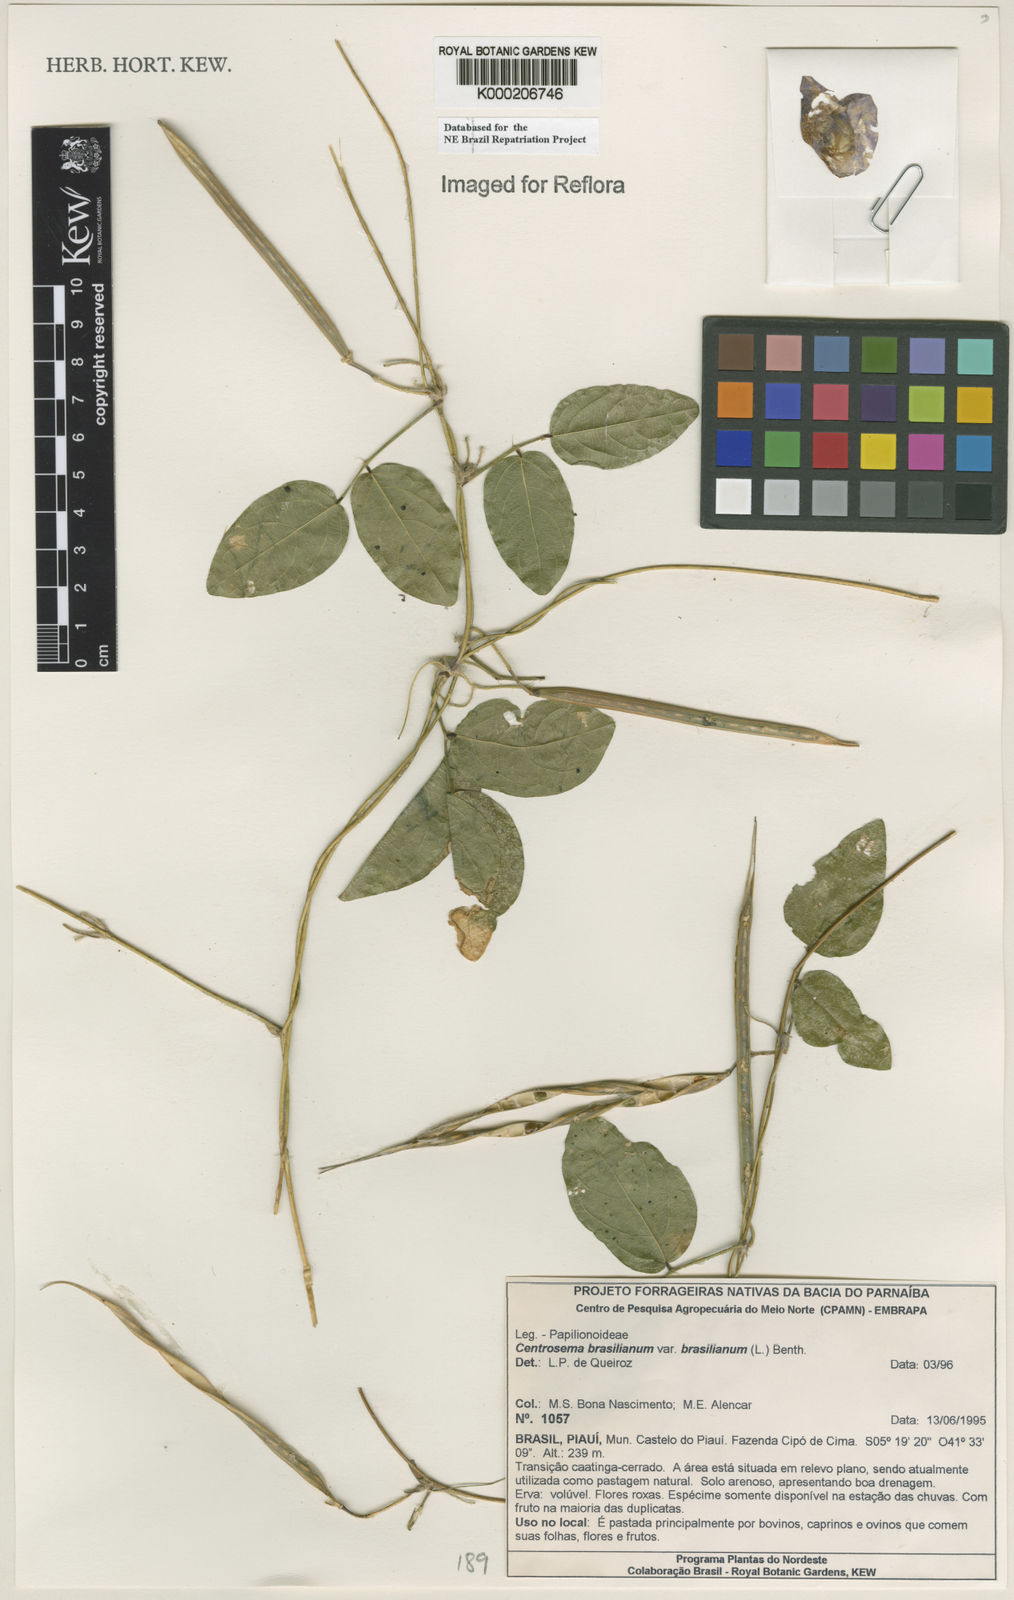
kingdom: Plantae
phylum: Tracheophyta
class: Magnoliopsida
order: Fabales
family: Fabaceae
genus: Centrosema
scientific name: Centrosema brasilianum
